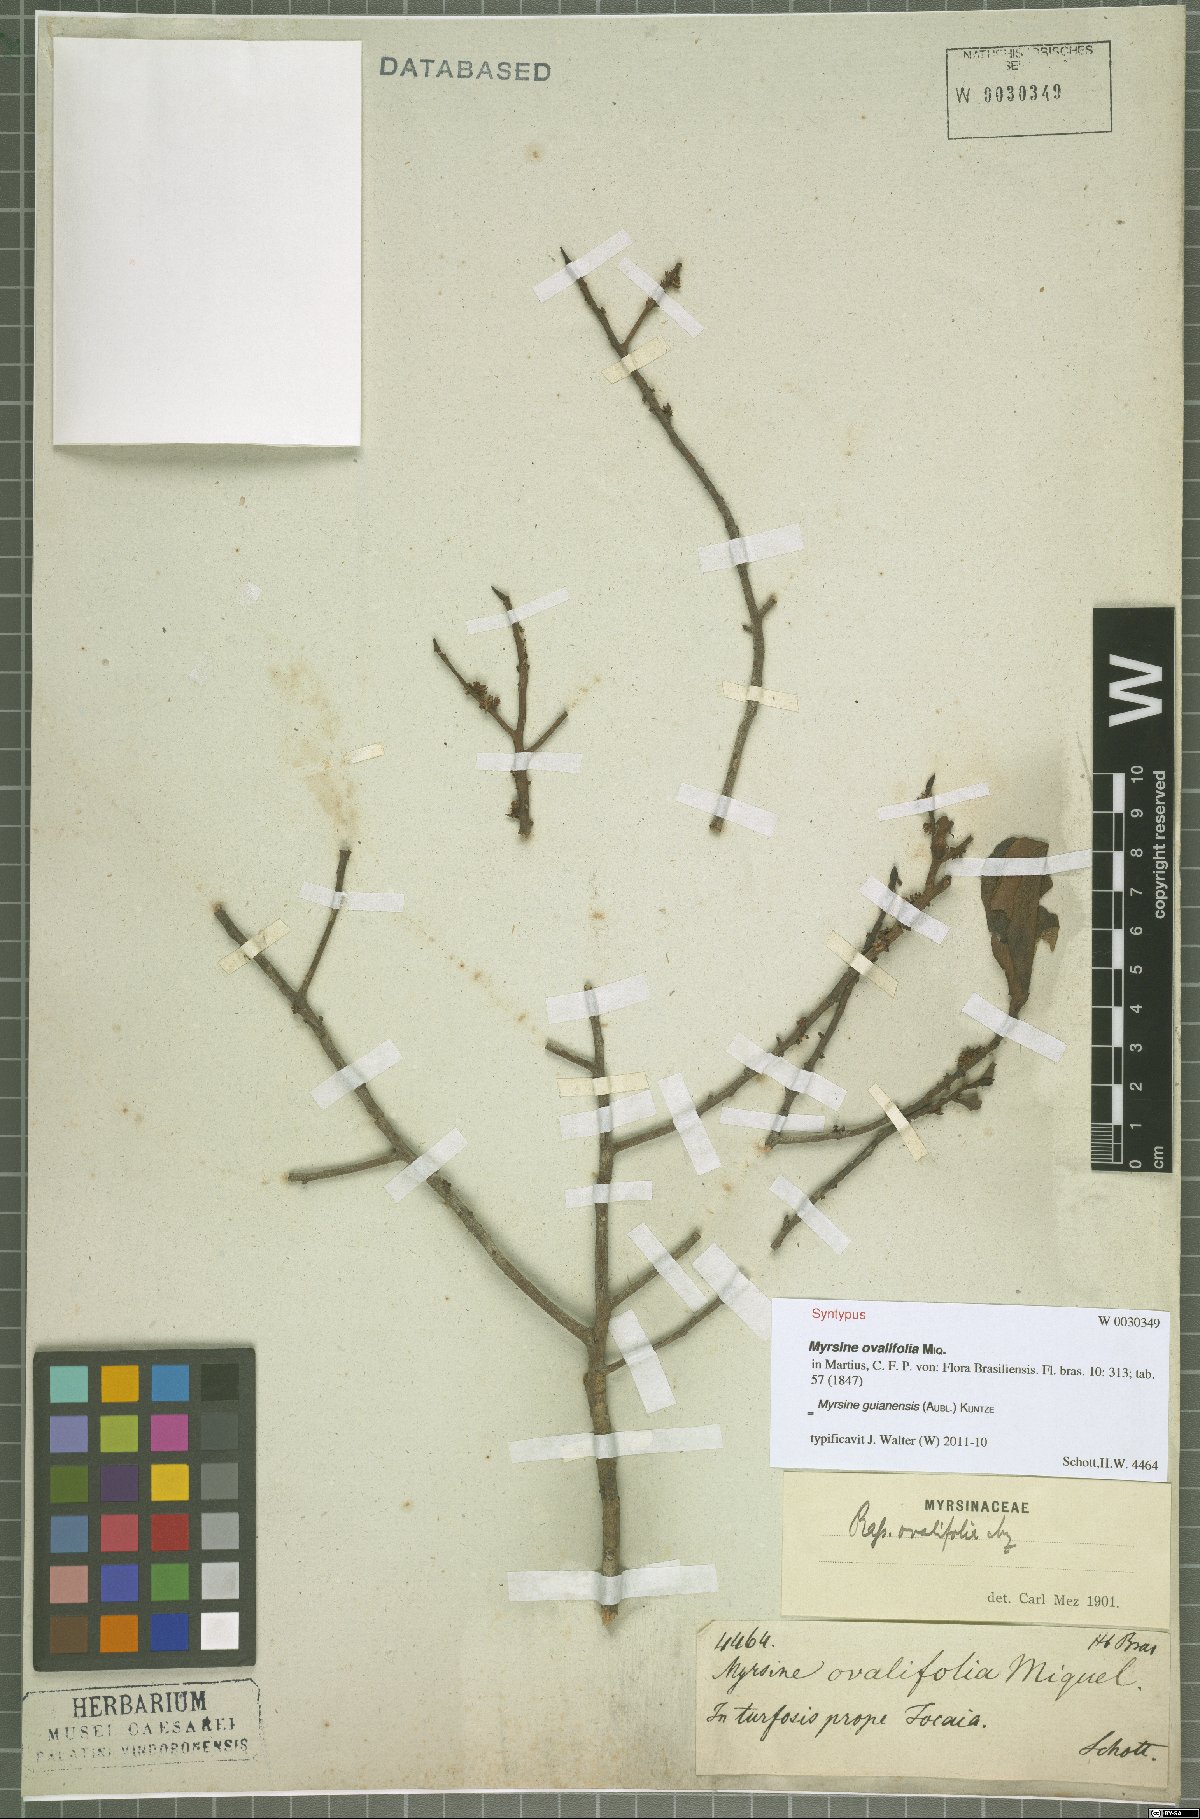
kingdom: Plantae
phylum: Tracheophyta
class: Magnoliopsida
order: Ericales
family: Primulaceae
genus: Myrsine
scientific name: Myrsine guianensis
